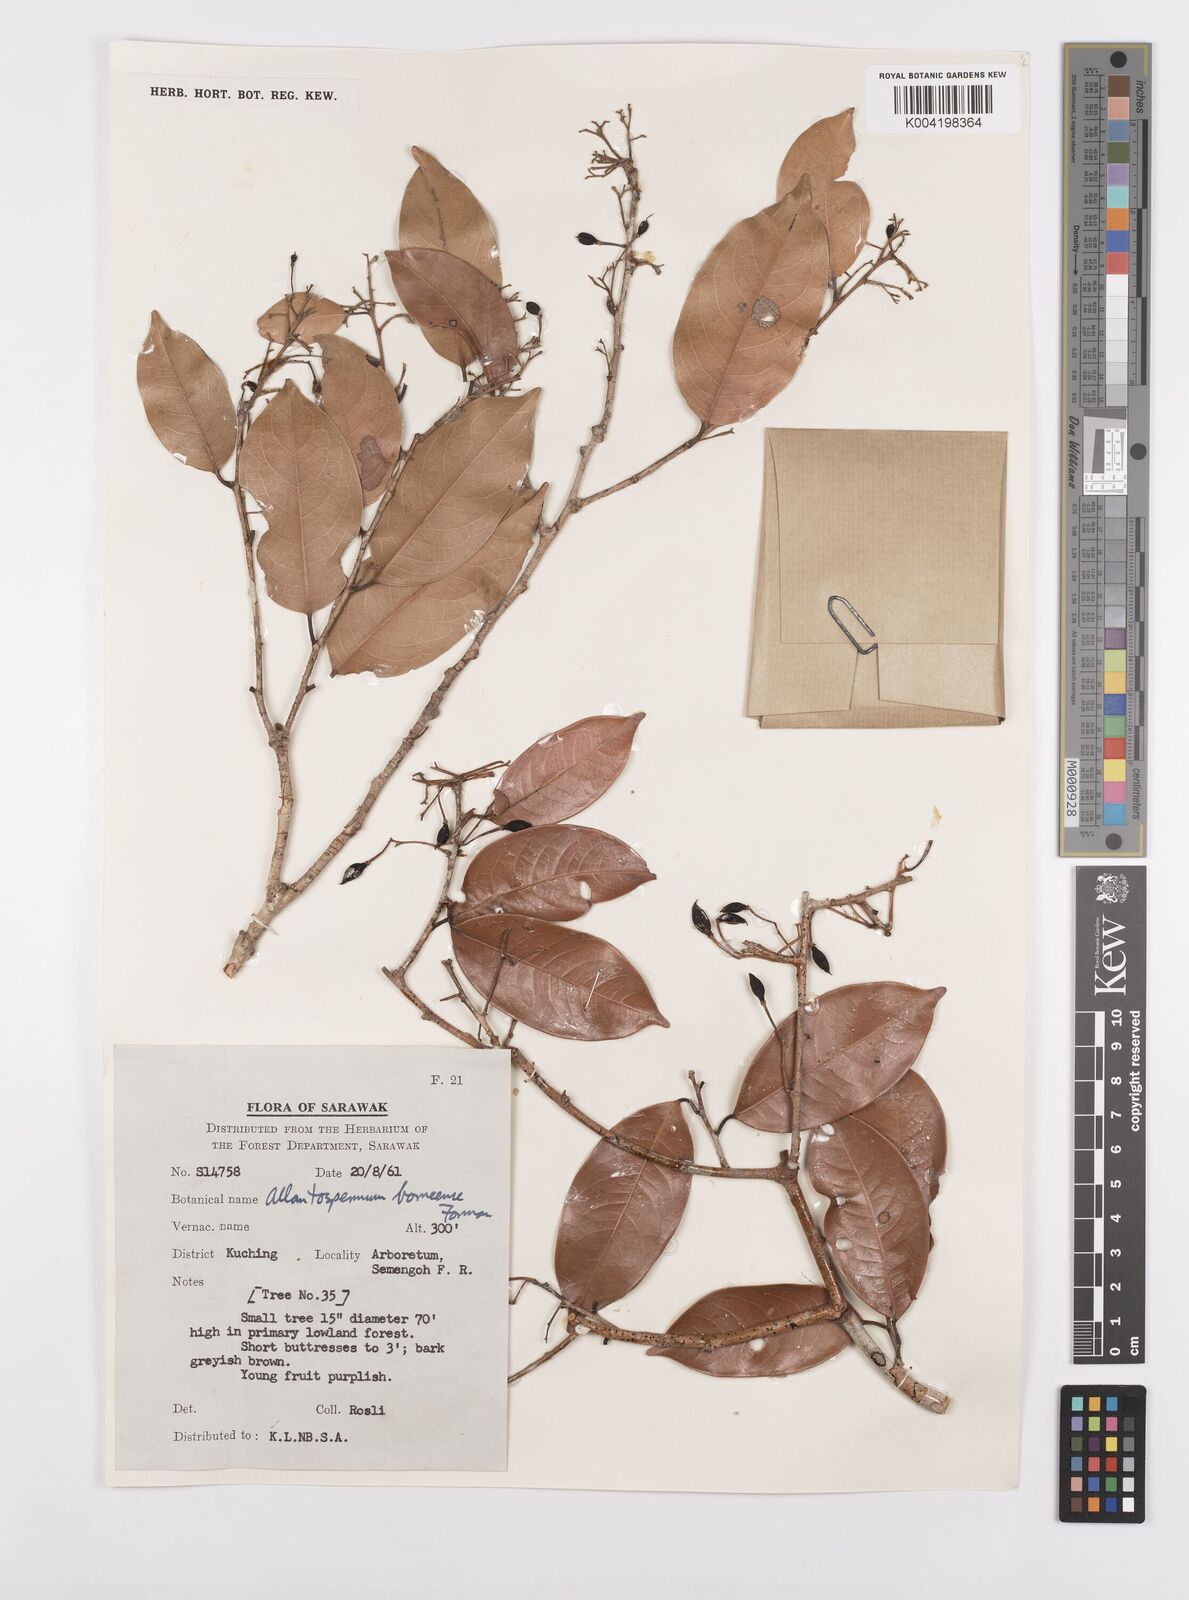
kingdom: Plantae
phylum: Tracheophyta
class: Magnoliopsida
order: Malpighiales
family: Ixonanthaceae
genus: Allantospermum
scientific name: Allantospermum borneense
